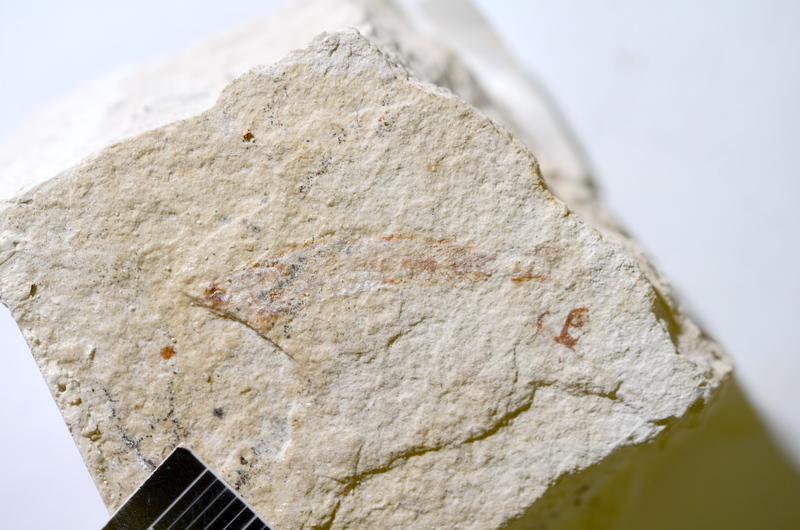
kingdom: Animalia
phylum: Chordata
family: Ascalaboidae
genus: Tharsis
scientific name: Tharsis dubius
